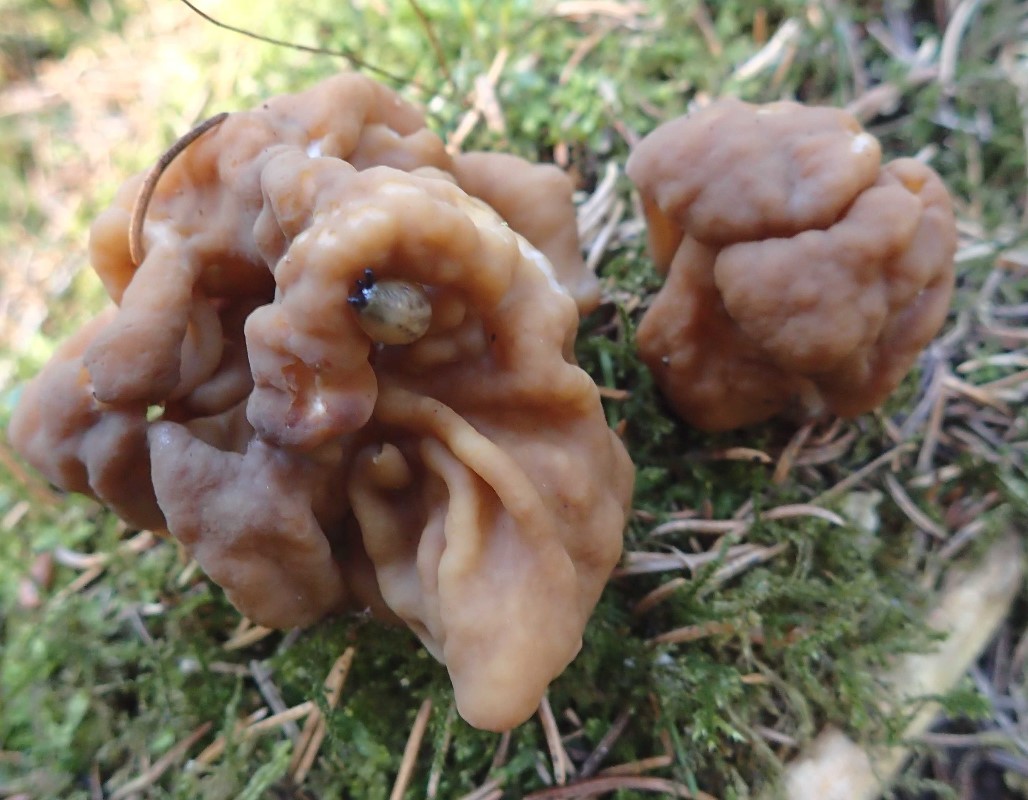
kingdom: Fungi
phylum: Ascomycota
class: Pezizomycetes
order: Pezizales
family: Discinaceae
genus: Gyromitra
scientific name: Gyromitra gigas
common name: kæmpe-stenmorkel
